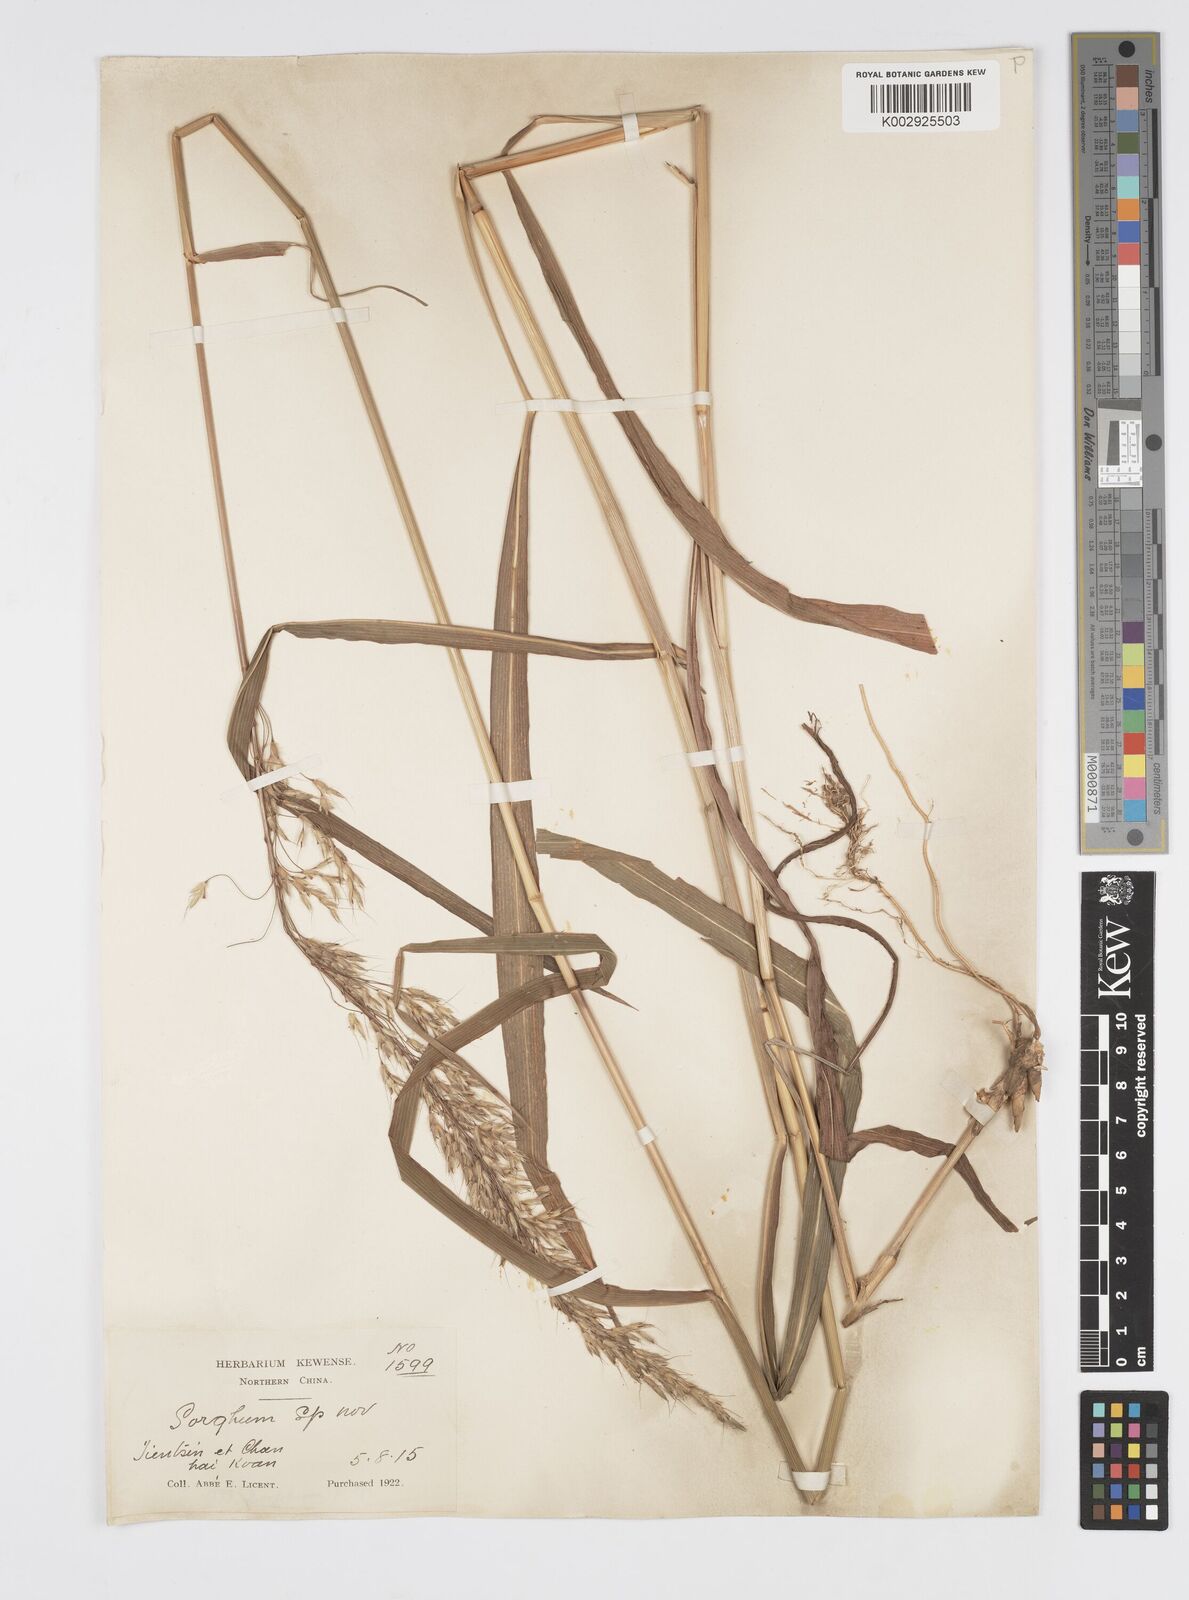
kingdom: Plantae
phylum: Tracheophyta
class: Liliopsida
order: Poales
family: Poaceae
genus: Spodiopogon
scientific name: Spodiopogon sibiricus
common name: Siberian graybeard
